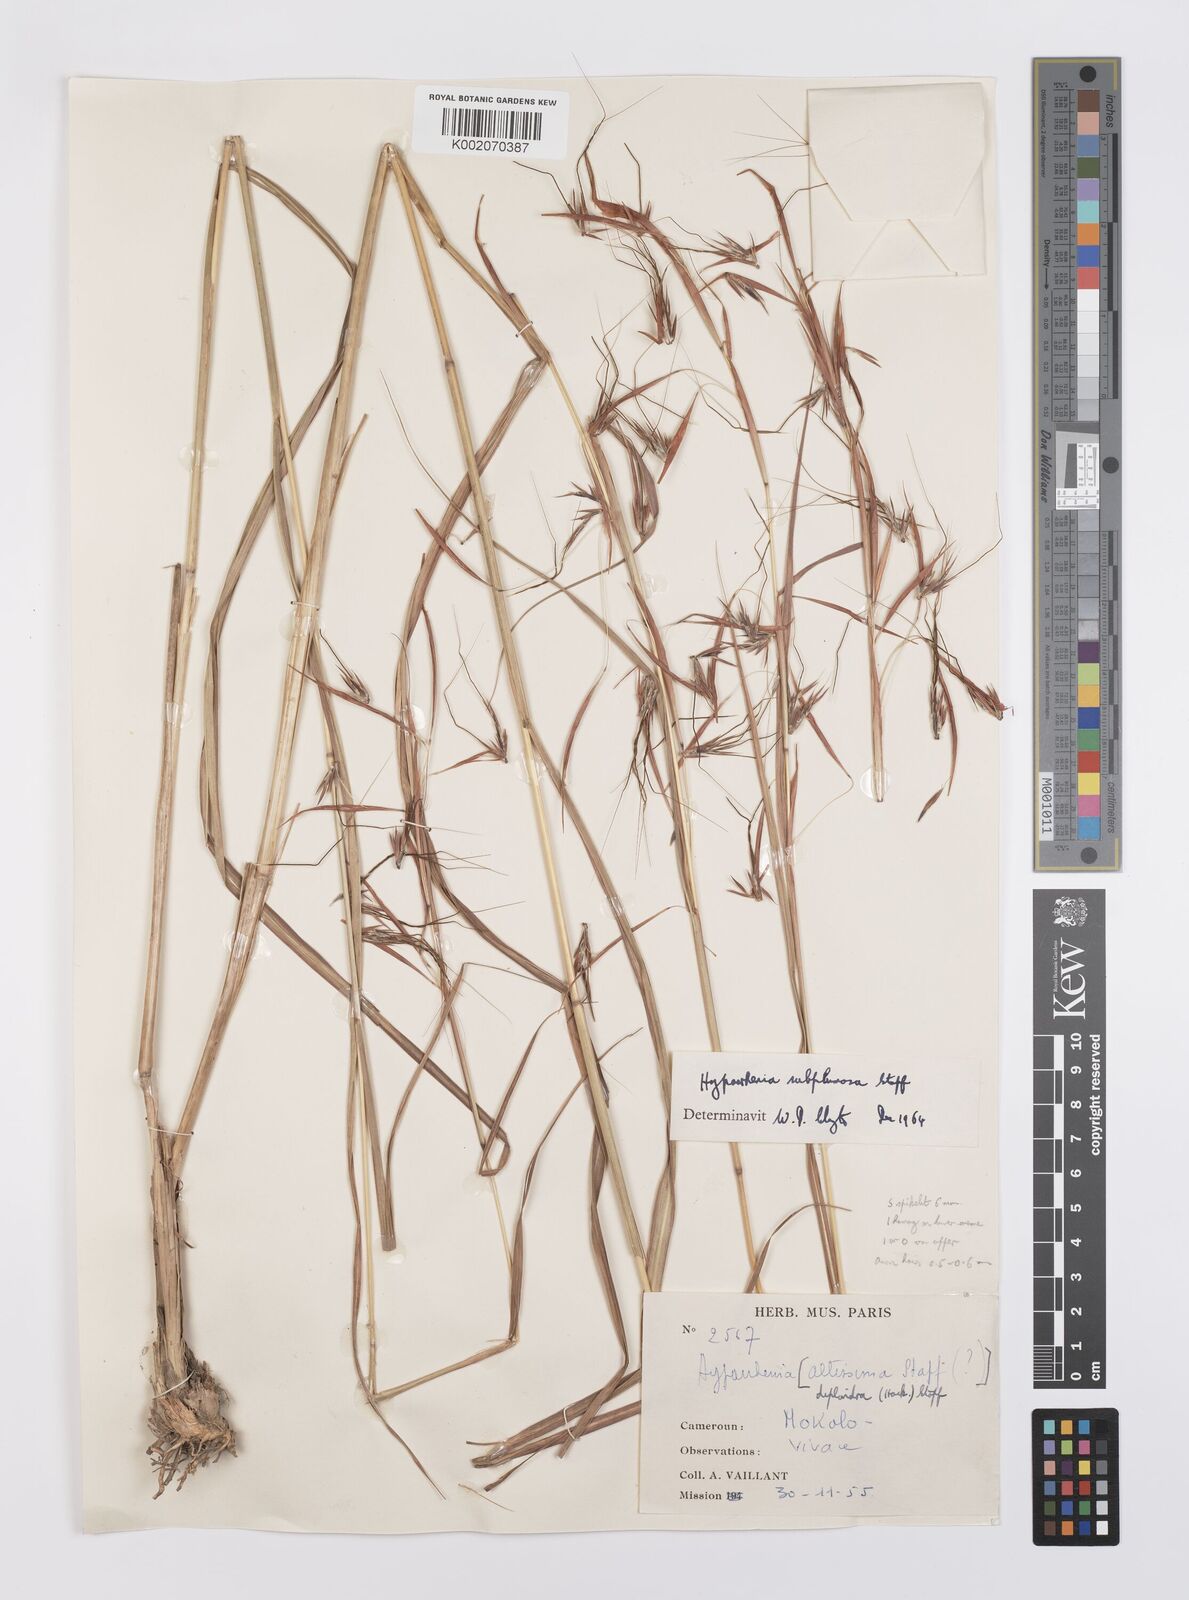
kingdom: Plantae
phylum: Tracheophyta
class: Liliopsida
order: Poales
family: Poaceae
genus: Hyparrhenia
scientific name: Hyparrhenia subplumosa
